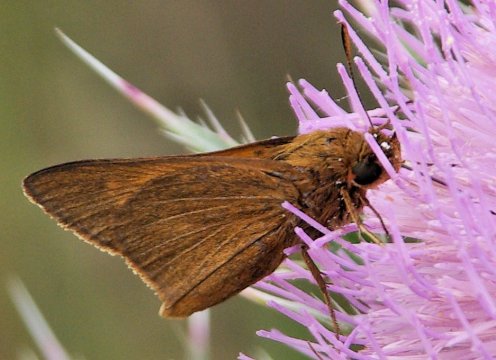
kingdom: Animalia
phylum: Arthropoda
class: Insecta
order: Lepidoptera
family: Hesperiidae
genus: Euphyes
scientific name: Euphyes pilatka
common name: Palatka Skipper
